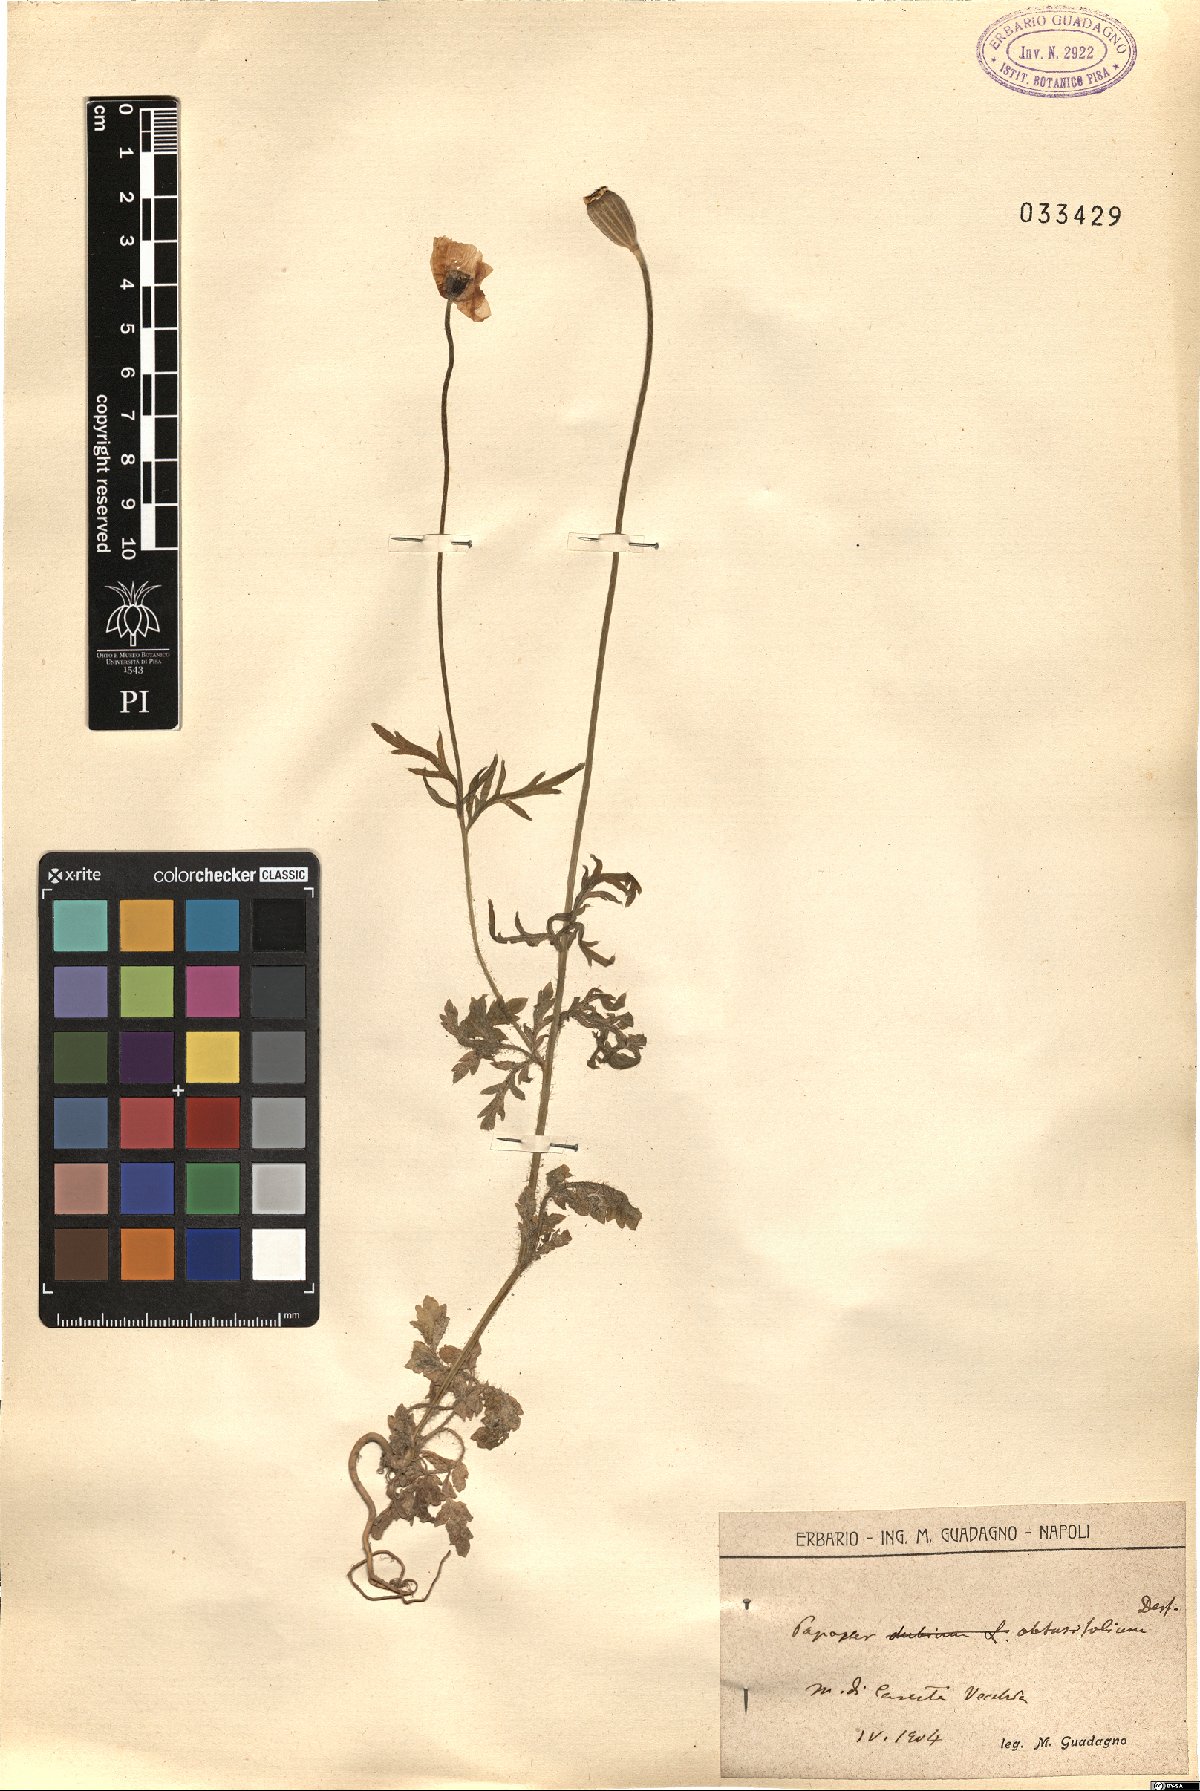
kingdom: Plantae
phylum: Tracheophyta
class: Magnoliopsida
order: Ranunculales
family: Papaveraceae
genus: Papaver
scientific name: Papaver dubium
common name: Long-headed poppy
